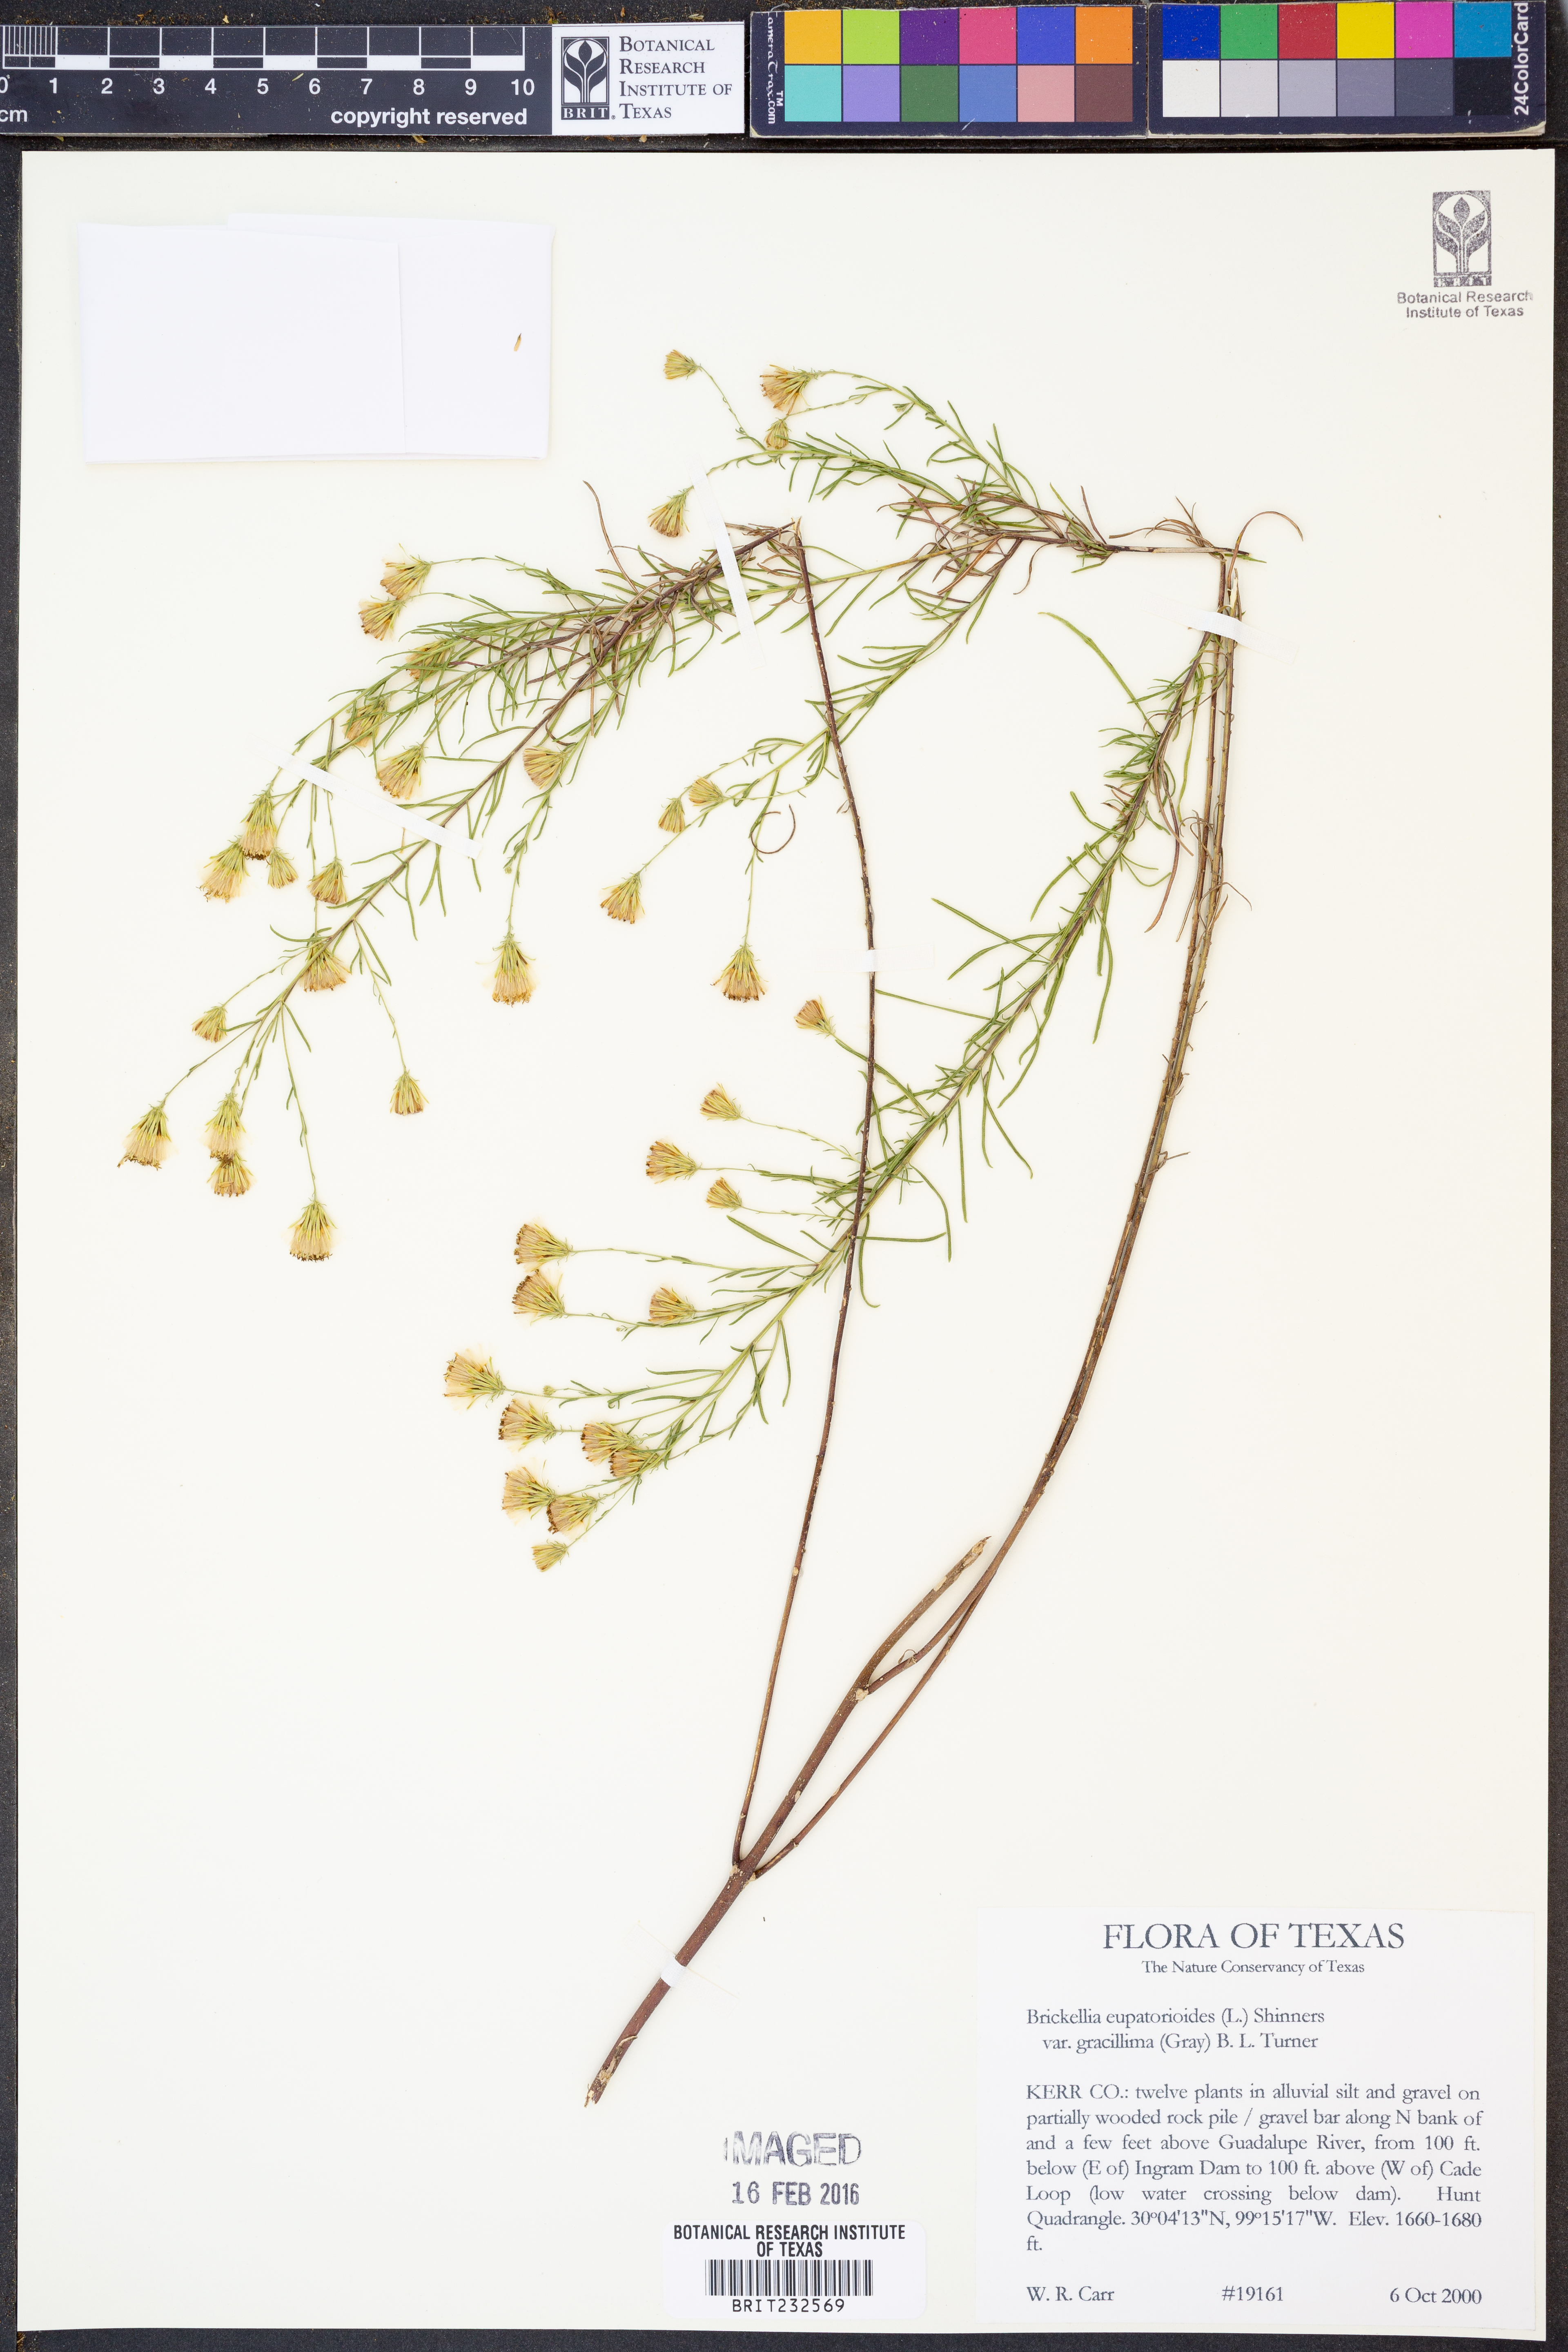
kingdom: Plantae
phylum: Tracheophyta
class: Magnoliopsida
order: Asterales
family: Asteraceae
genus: Brickellia
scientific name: Brickellia leptophylla
